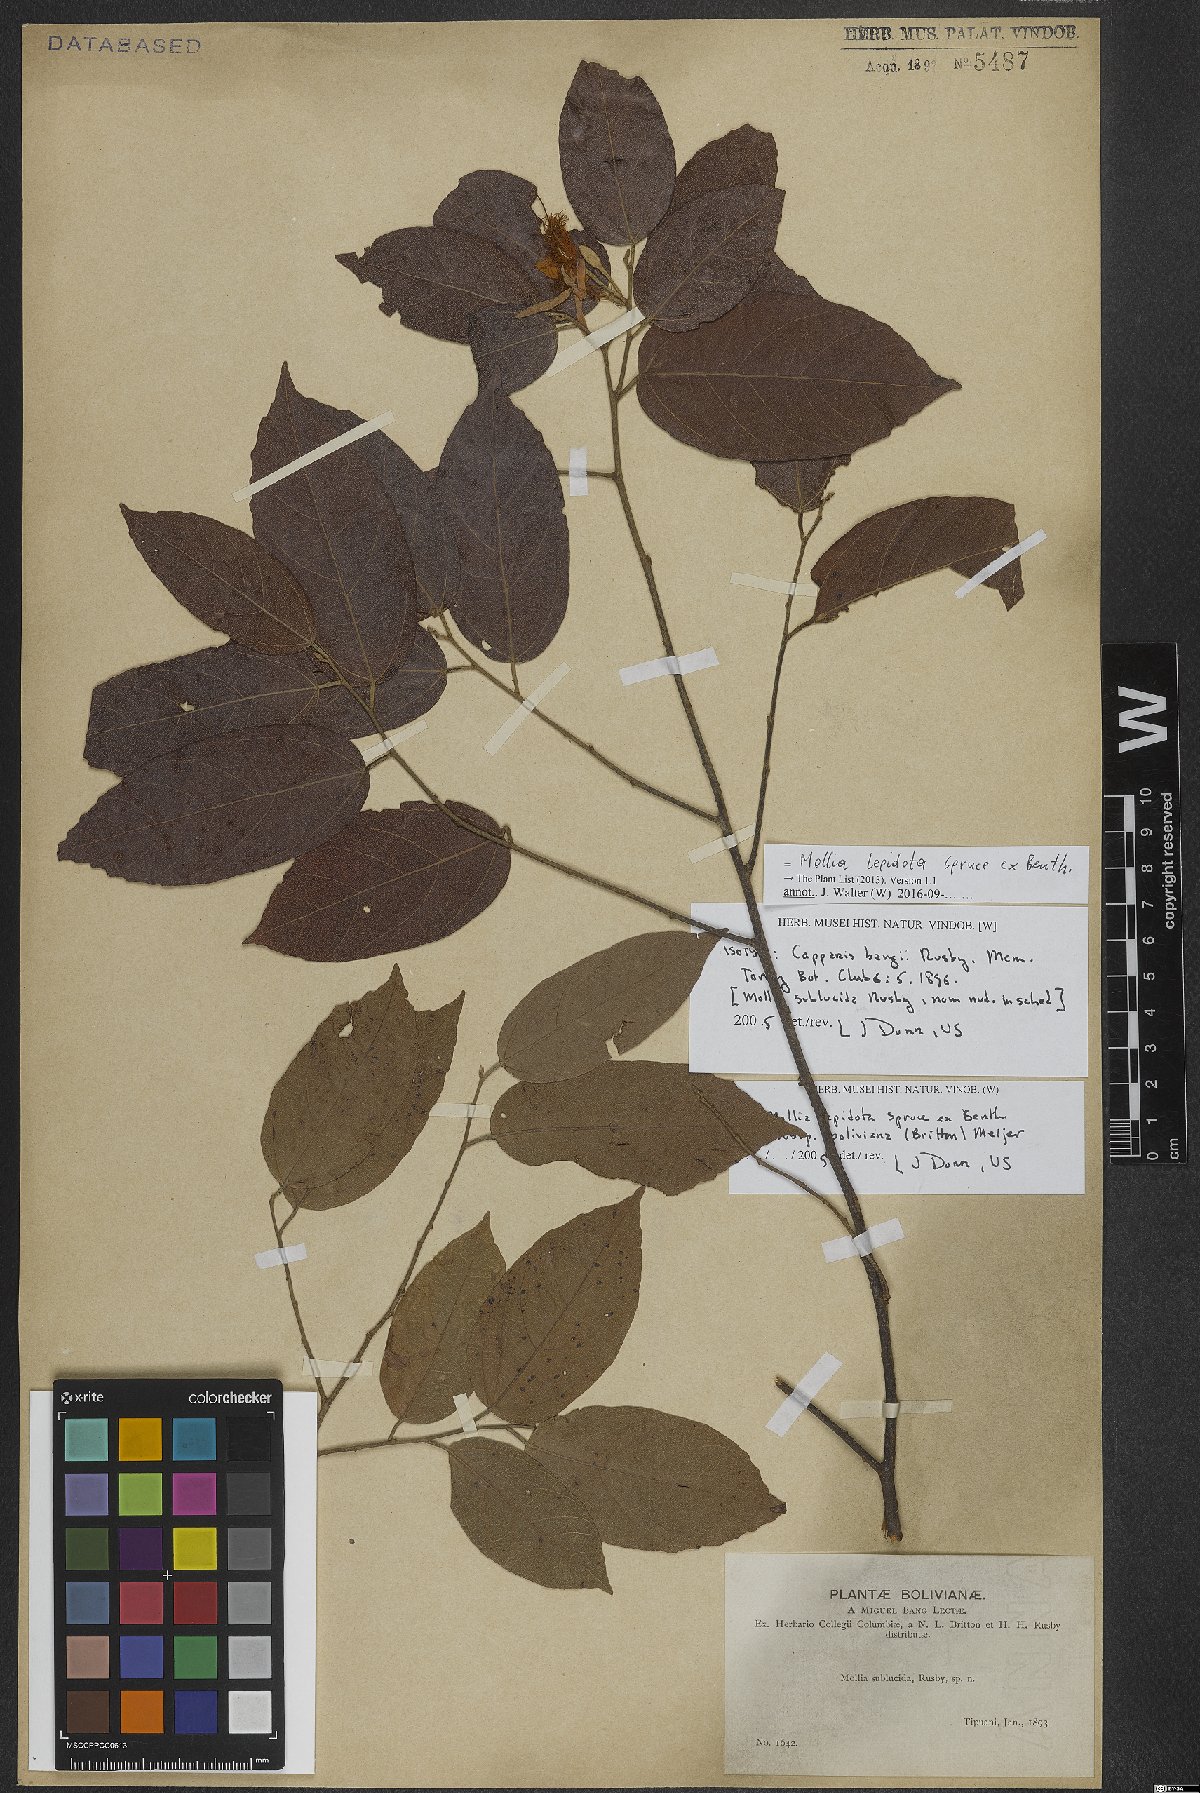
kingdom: Plantae
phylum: Tracheophyta
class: Magnoliopsida
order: Malvales
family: Malvaceae
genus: Mollia
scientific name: Mollia lepidota
